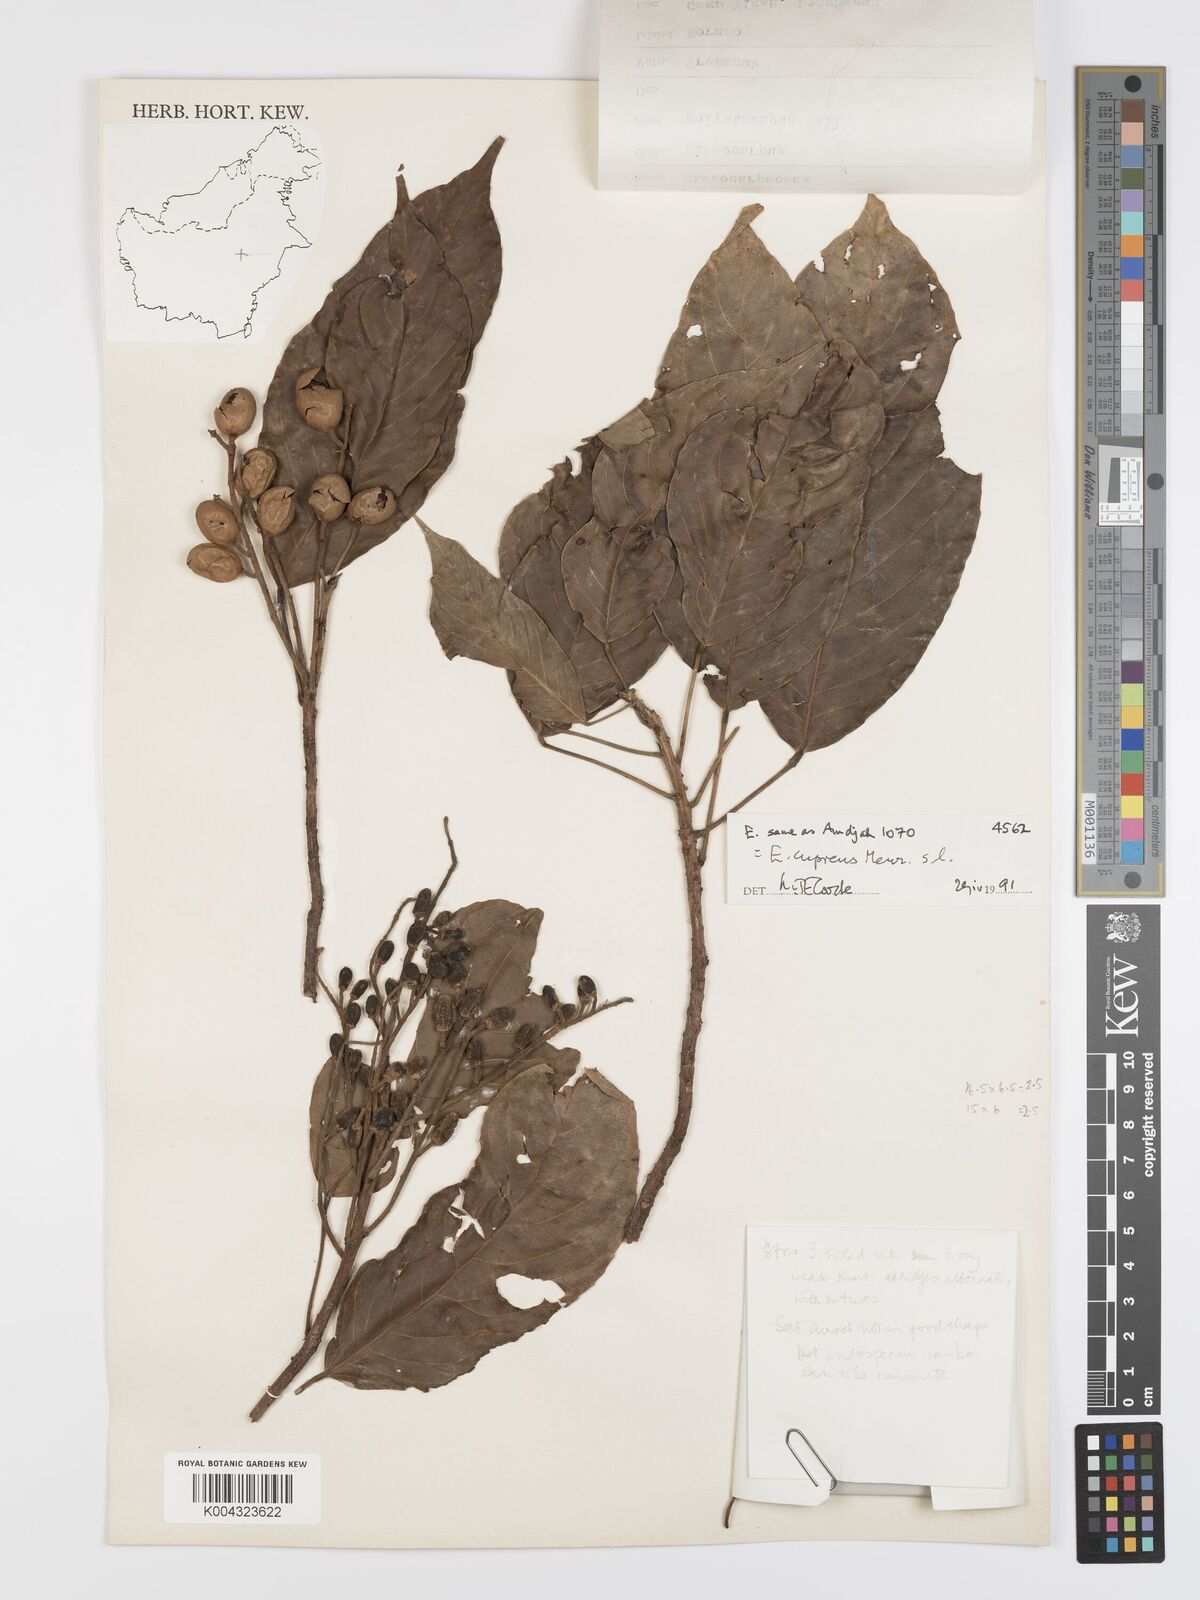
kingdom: Plantae
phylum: Tracheophyta
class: Magnoliopsida
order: Oxalidales
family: Elaeocarpaceae
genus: Elaeocarpus
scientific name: Elaeocarpus cupreus
